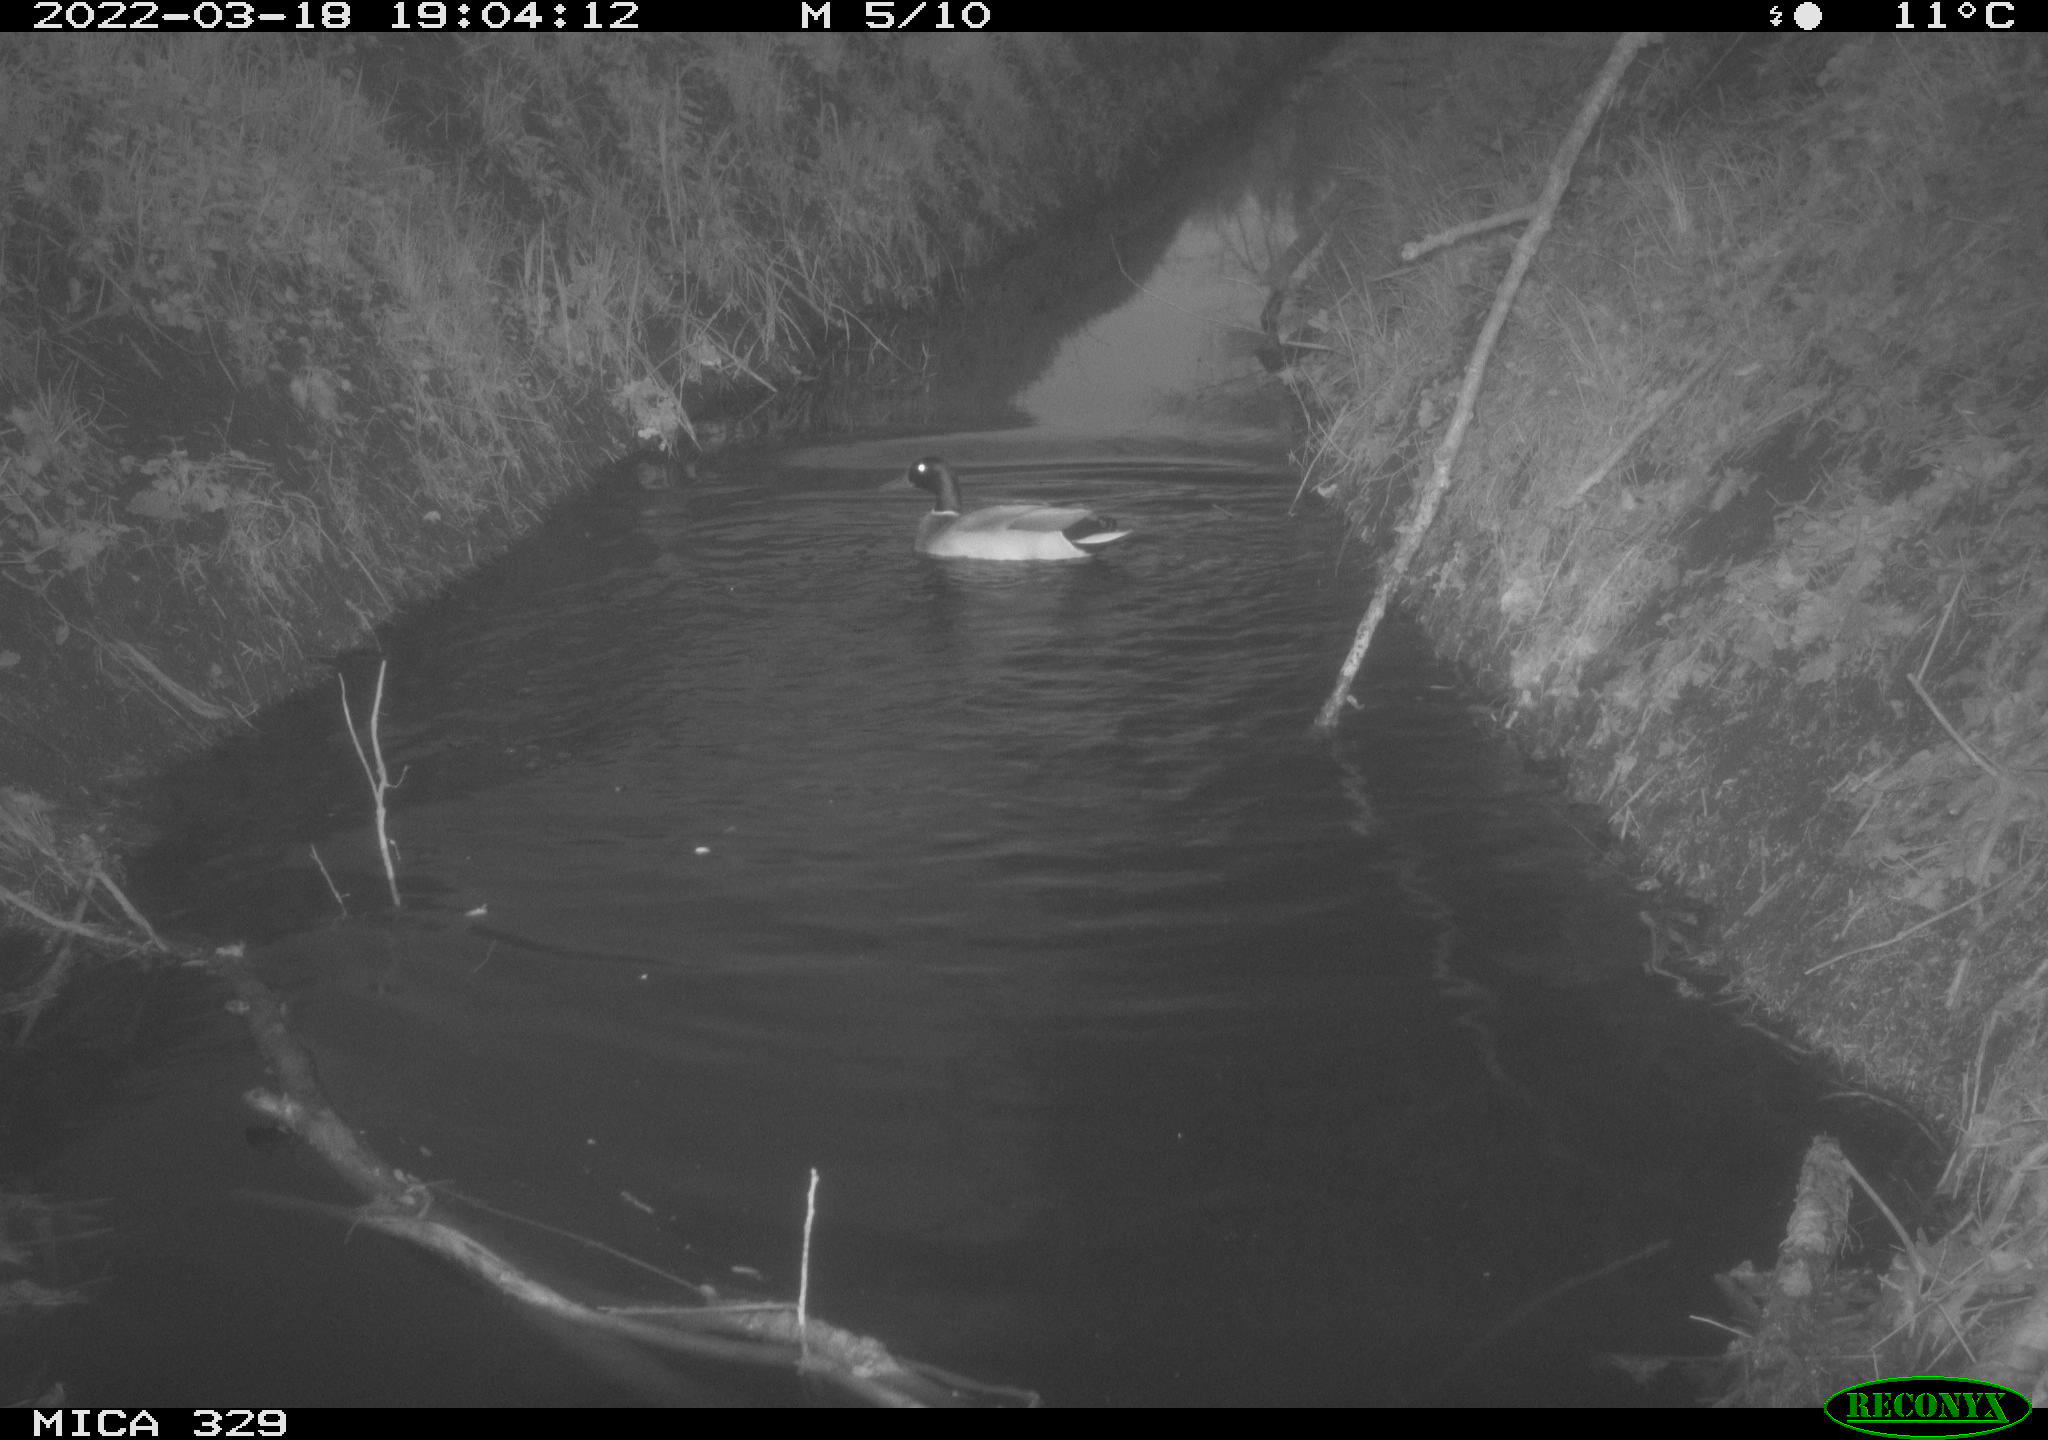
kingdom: Animalia
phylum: Chordata
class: Aves
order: Anseriformes
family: Anatidae
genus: Anas
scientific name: Anas platyrhynchos
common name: Mallard
